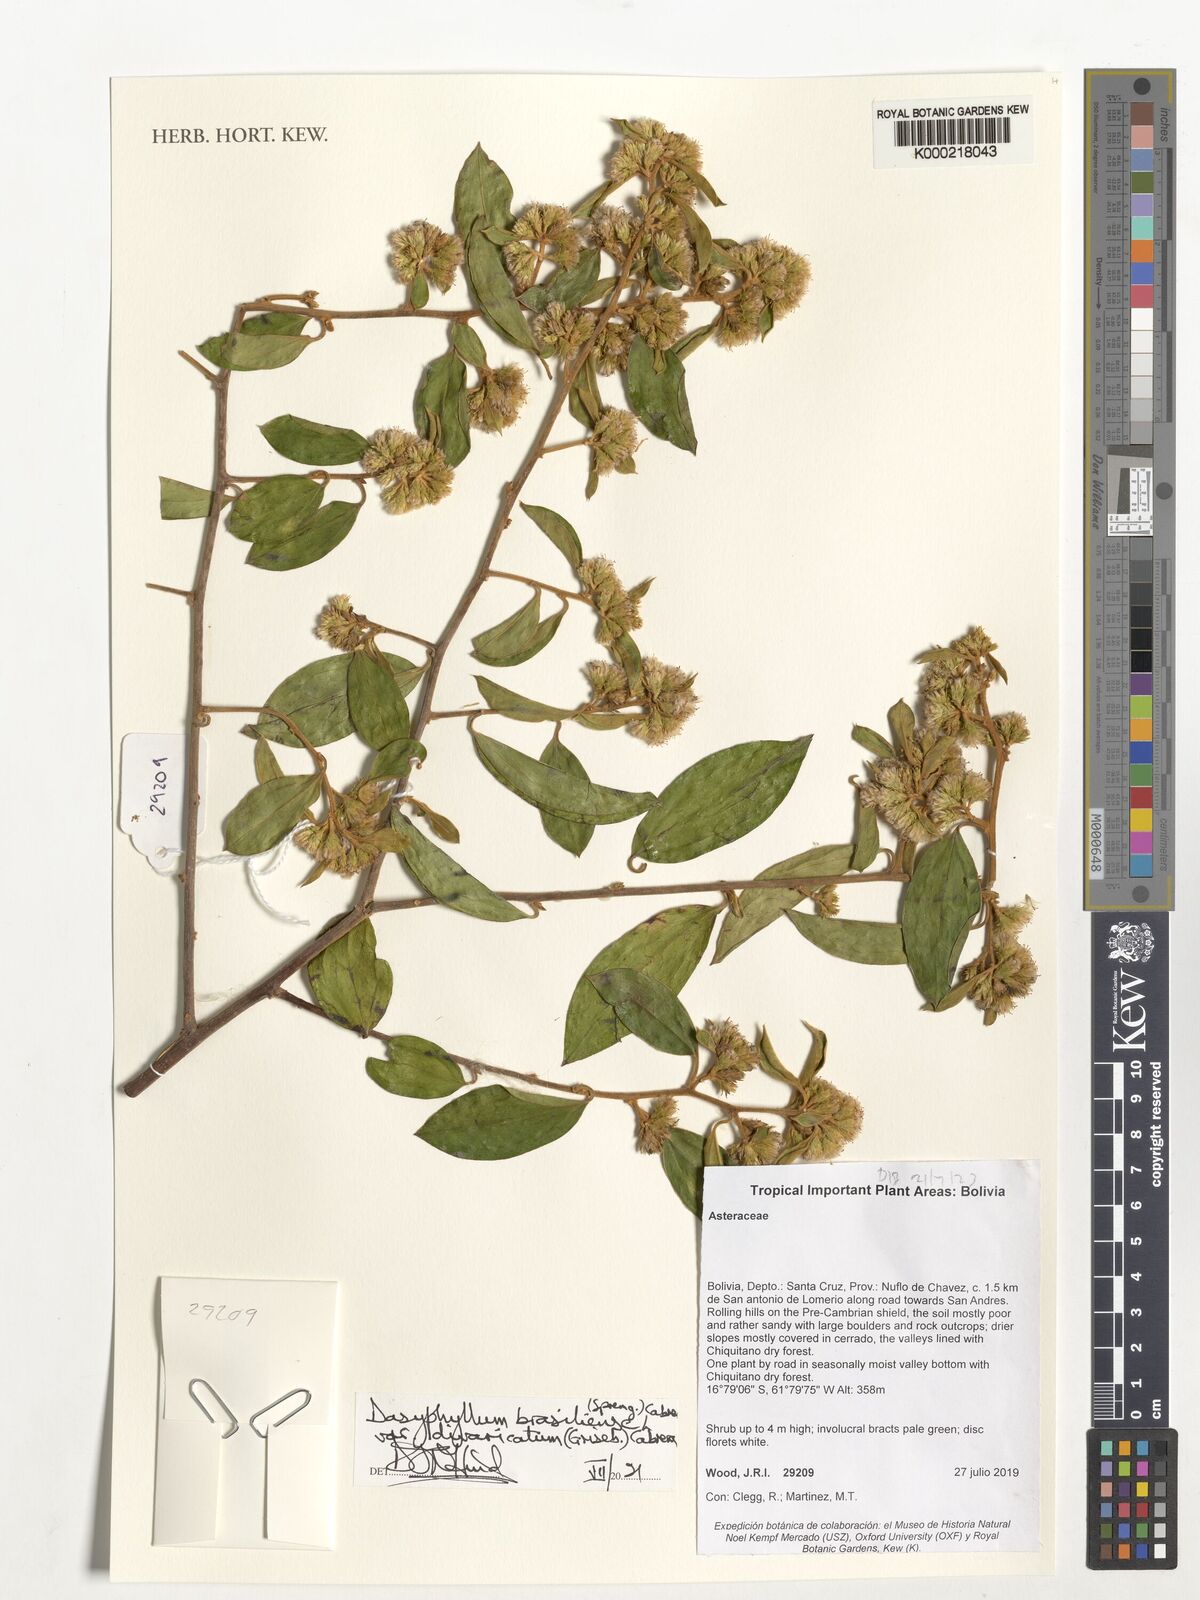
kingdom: Plantae
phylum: Tracheophyta
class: Magnoliopsida
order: Asterales
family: Asteraceae
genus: Dasyphyllum
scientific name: Dasyphyllum brasiliense
